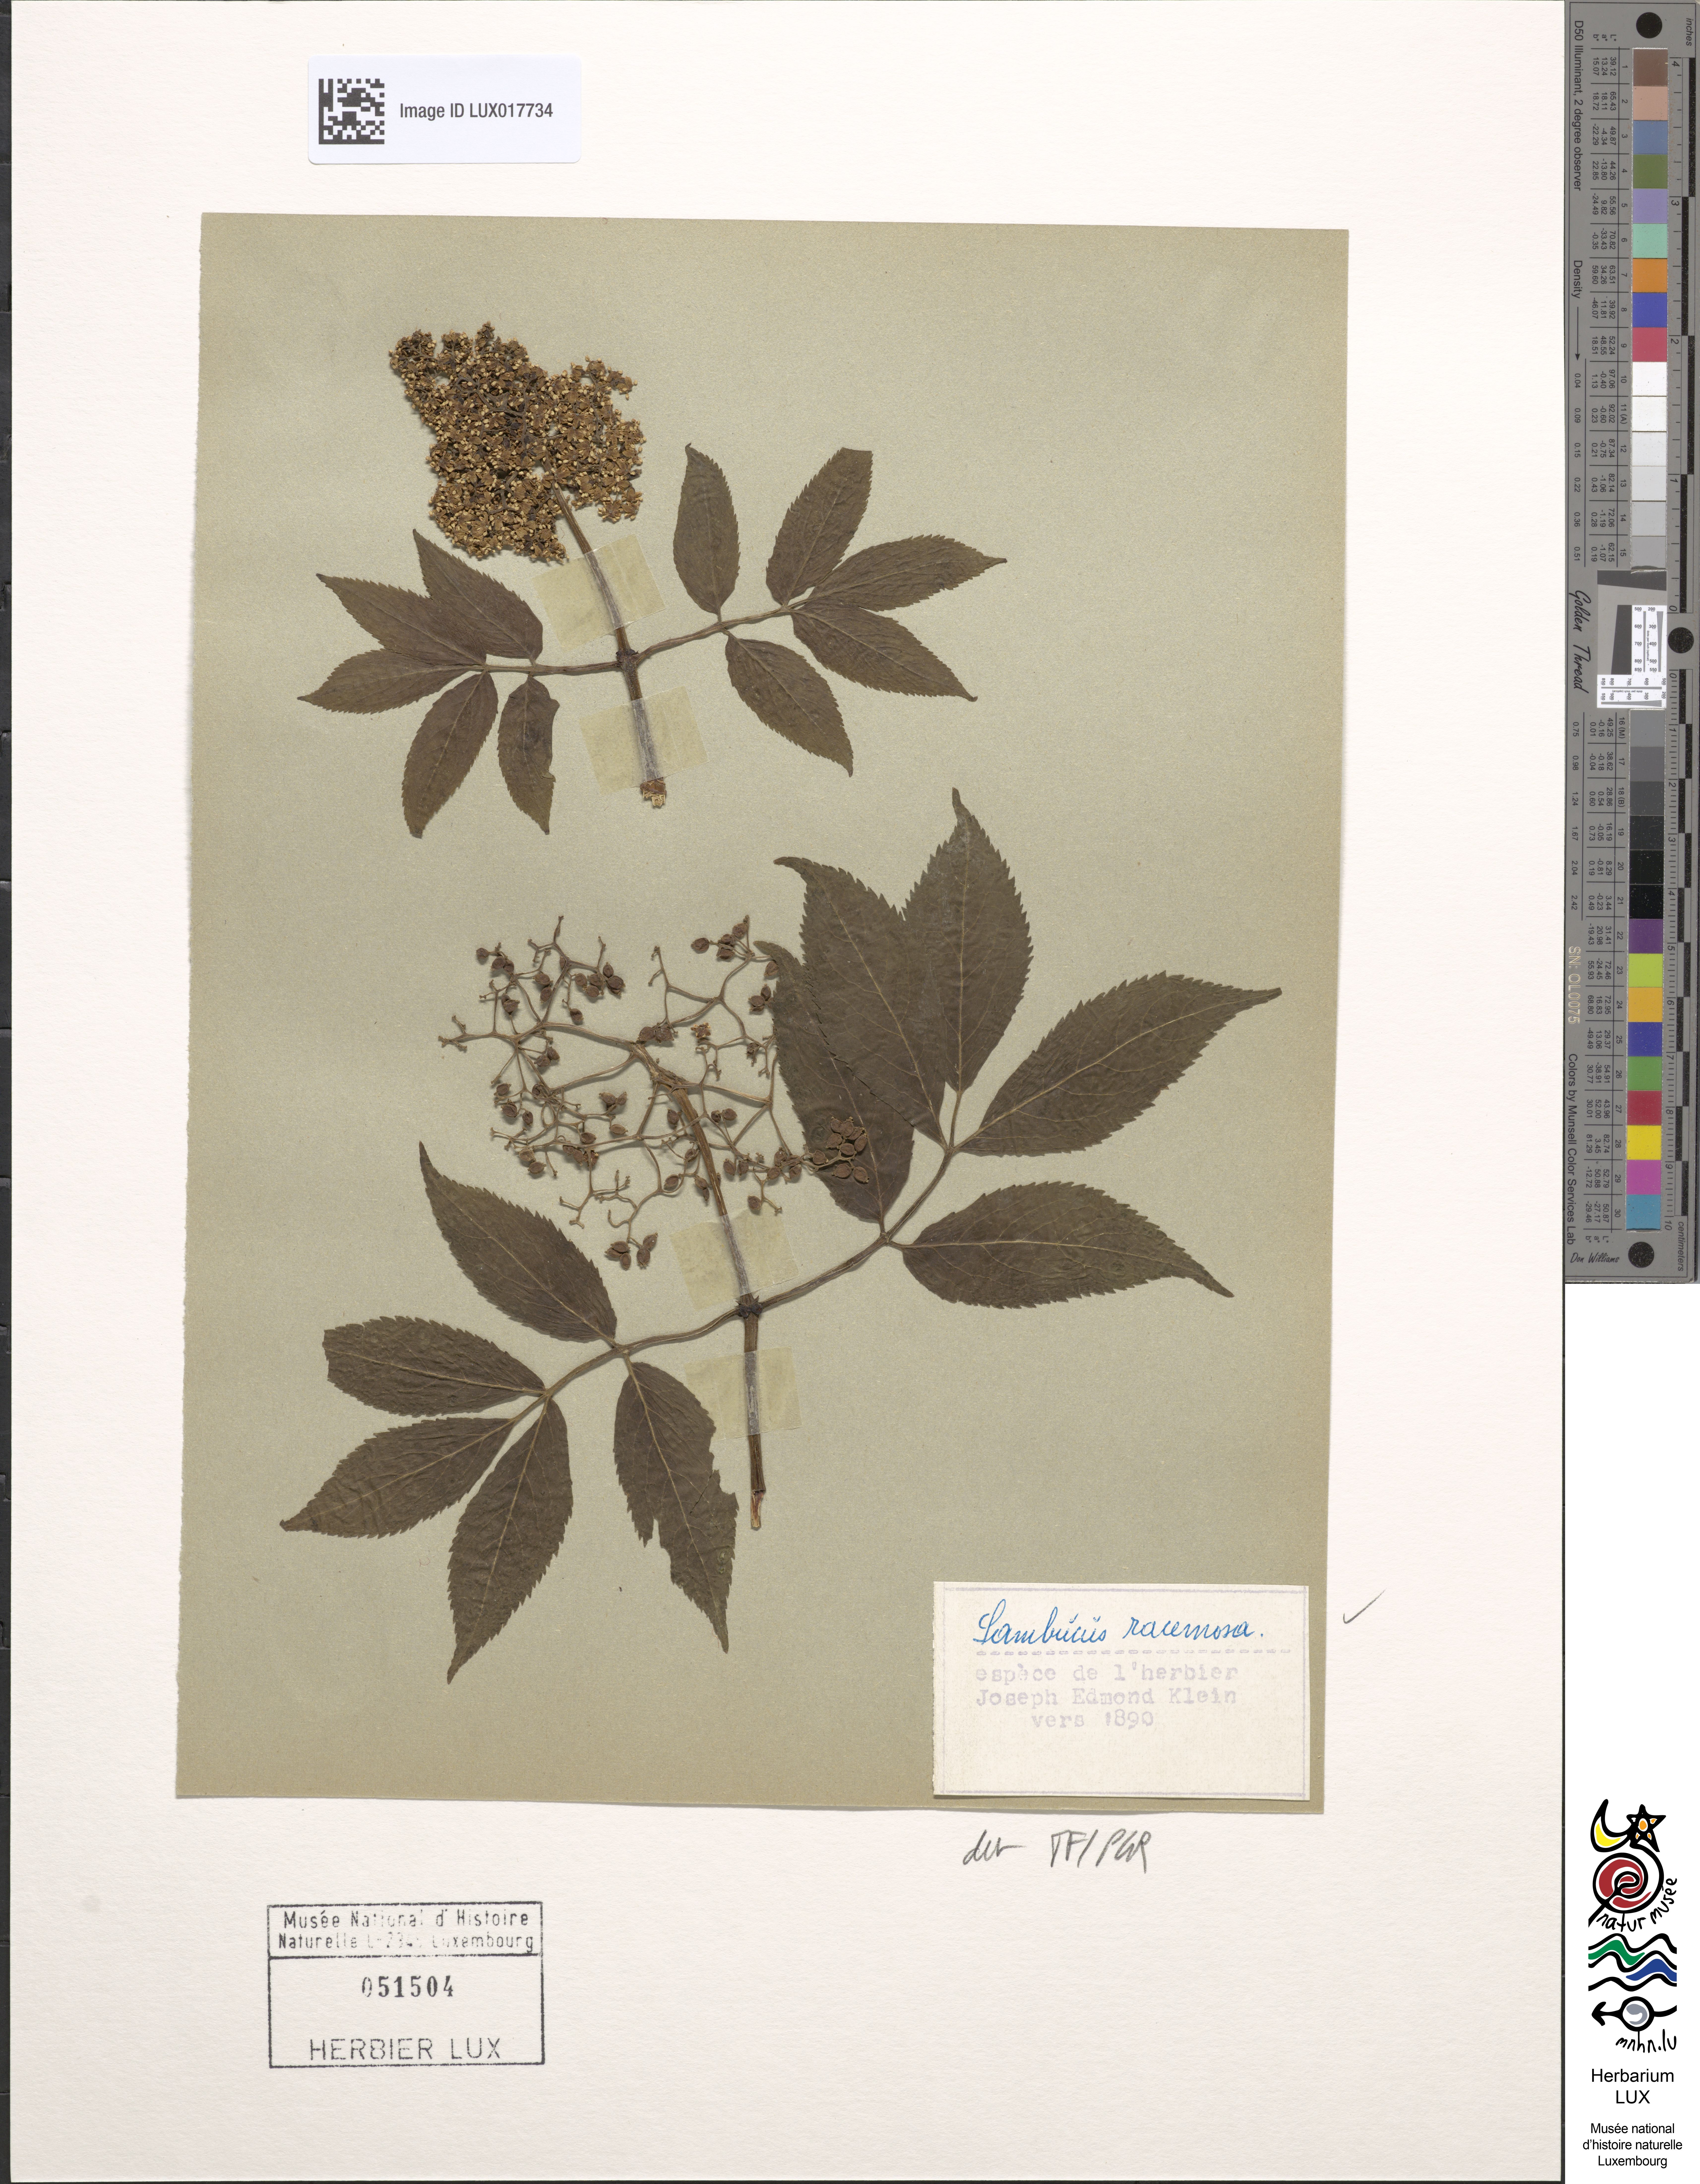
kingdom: Plantae
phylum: Tracheophyta
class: Magnoliopsida
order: Dipsacales
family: Viburnaceae
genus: Sambucus
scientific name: Sambucus racemosa
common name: Red-berried elder
